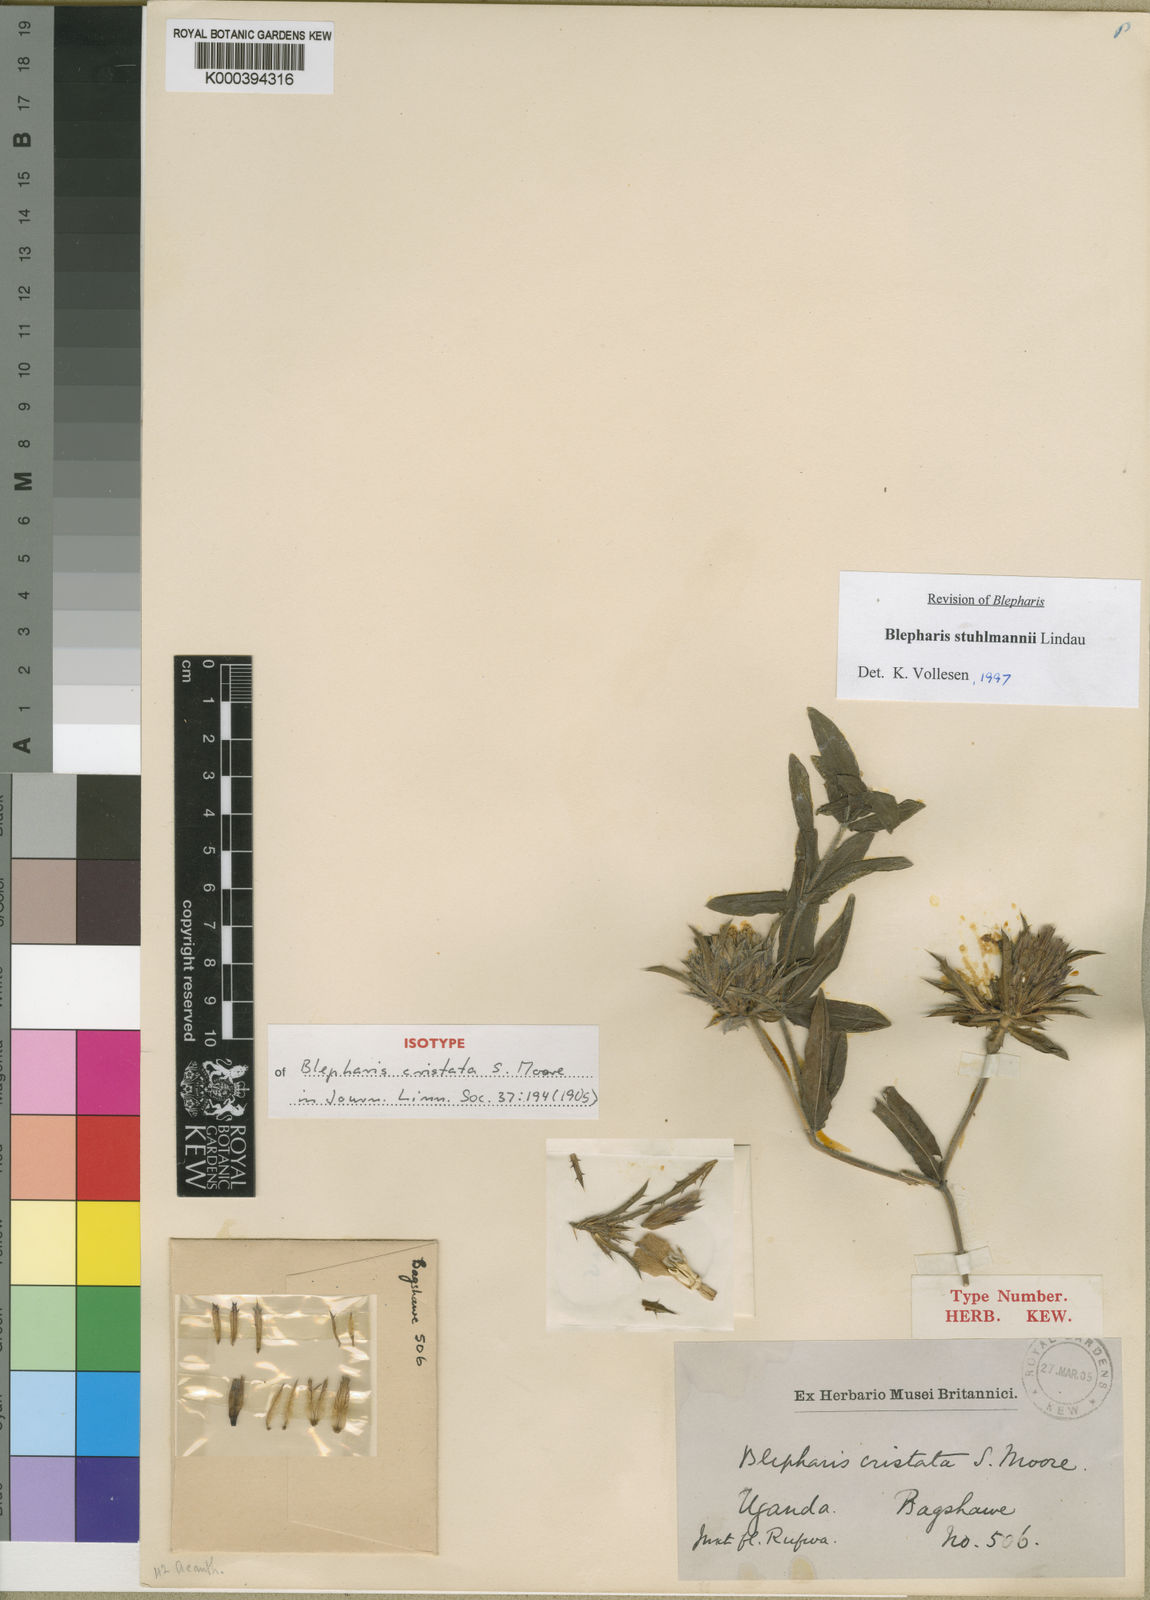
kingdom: Plantae
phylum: Tracheophyta
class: Magnoliopsida
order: Lamiales
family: Acanthaceae
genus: Blepharis
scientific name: Blepharis stuhlmannii
